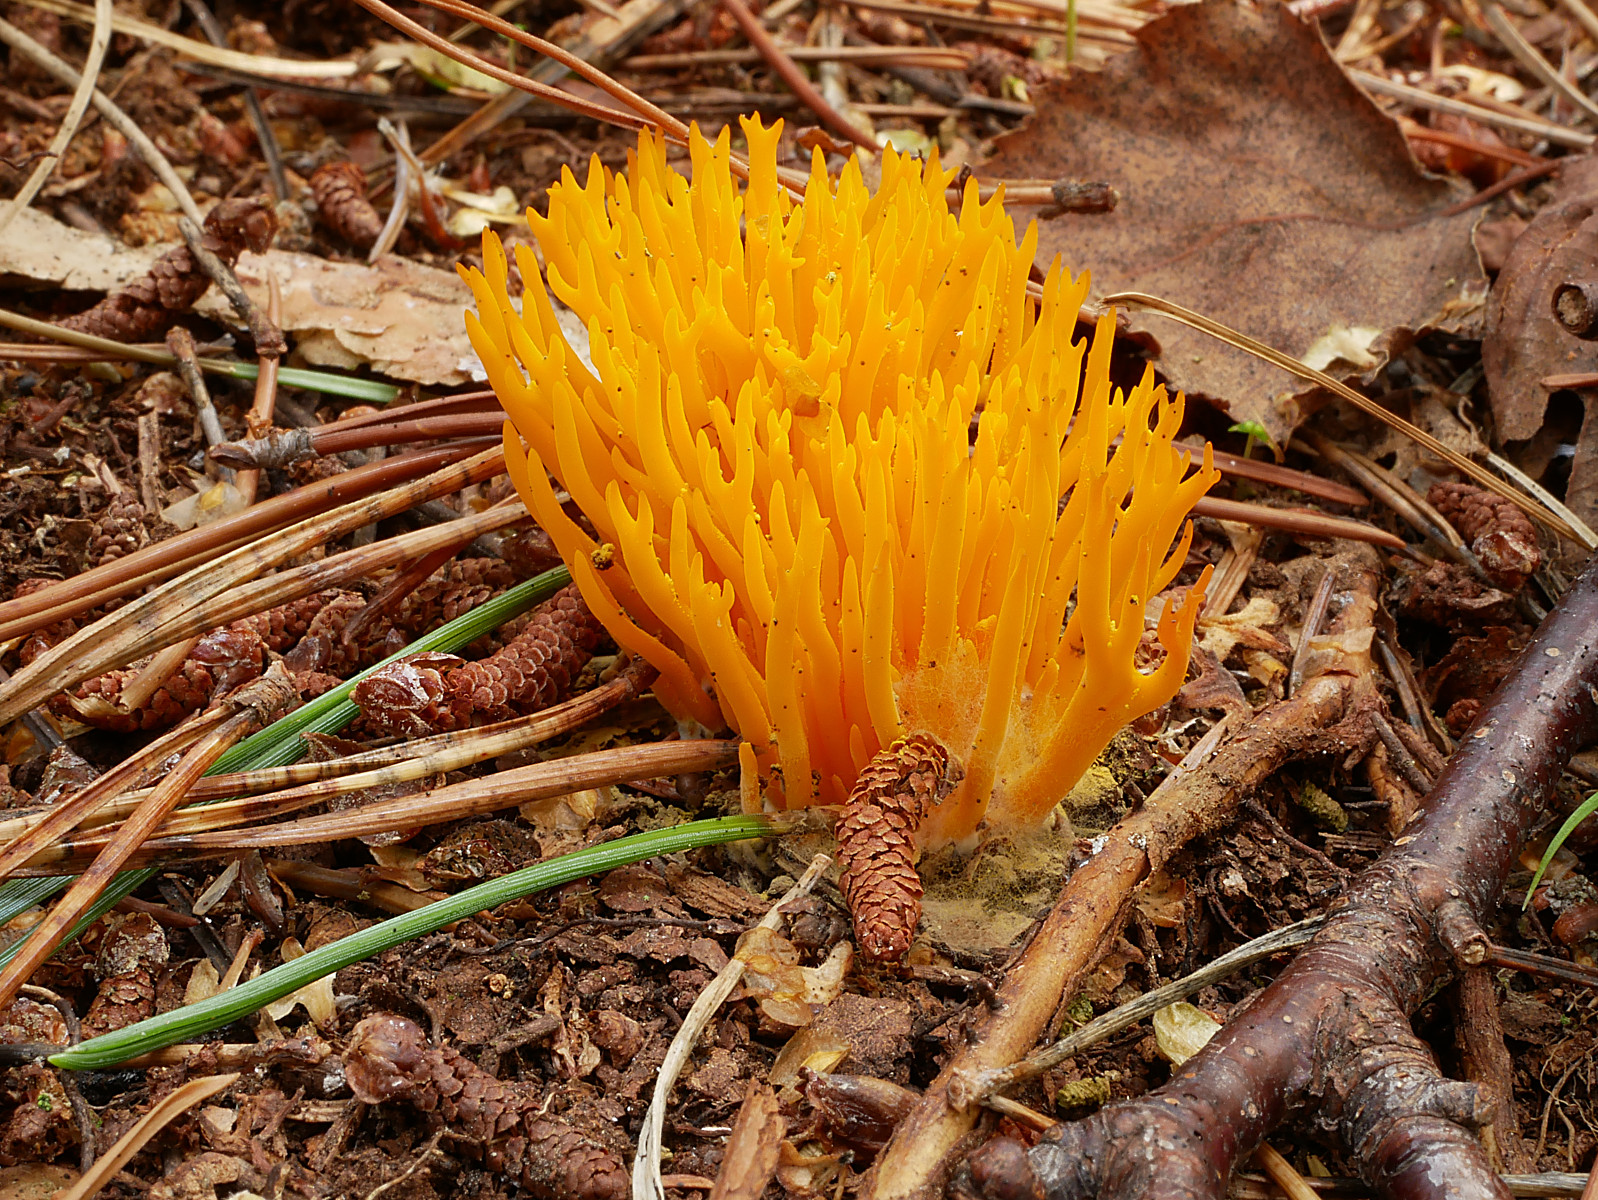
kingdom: Fungi
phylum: Basidiomycota
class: Dacrymycetes
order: Dacrymycetales
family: Dacrymycetaceae
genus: Calocera
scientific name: Calocera viscosa
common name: almindelig guldgaffel
